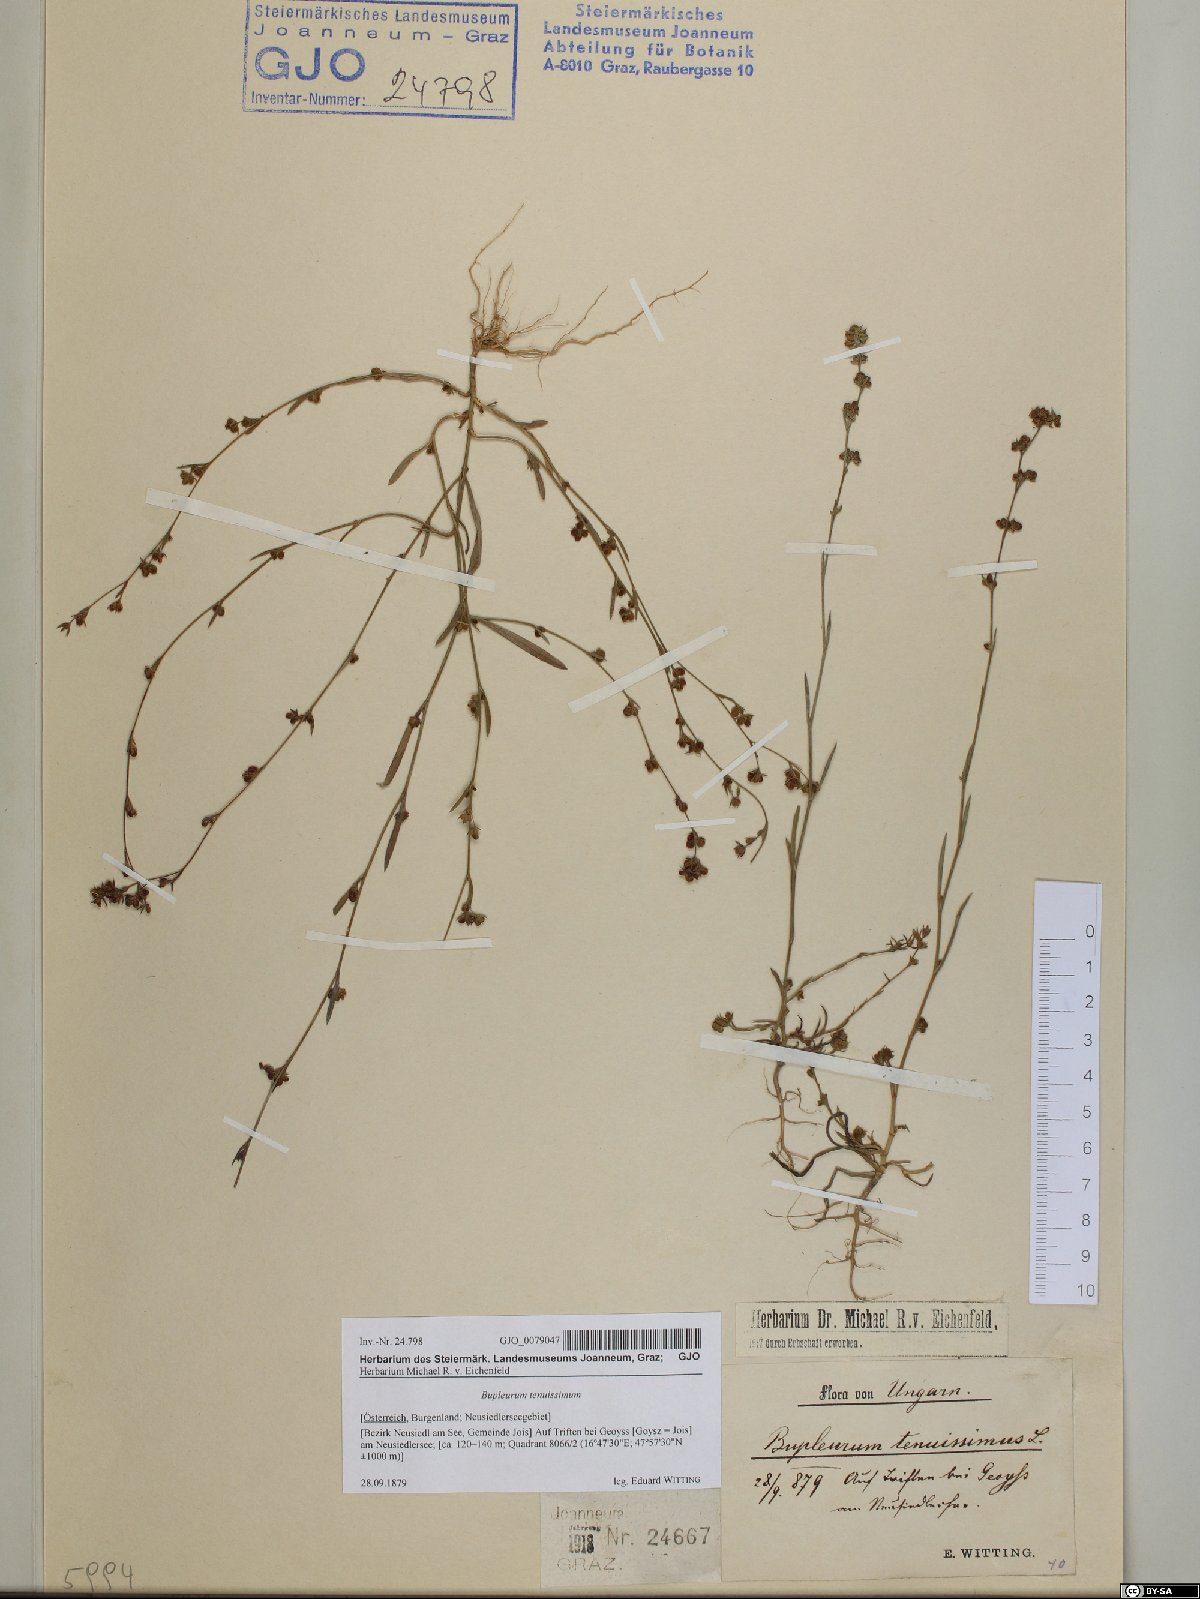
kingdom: Plantae
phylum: Tracheophyta
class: Magnoliopsida
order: Apiales
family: Apiaceae
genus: Bupleurum
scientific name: Bupleurum tenuissimum
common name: Slender hare's-ear
